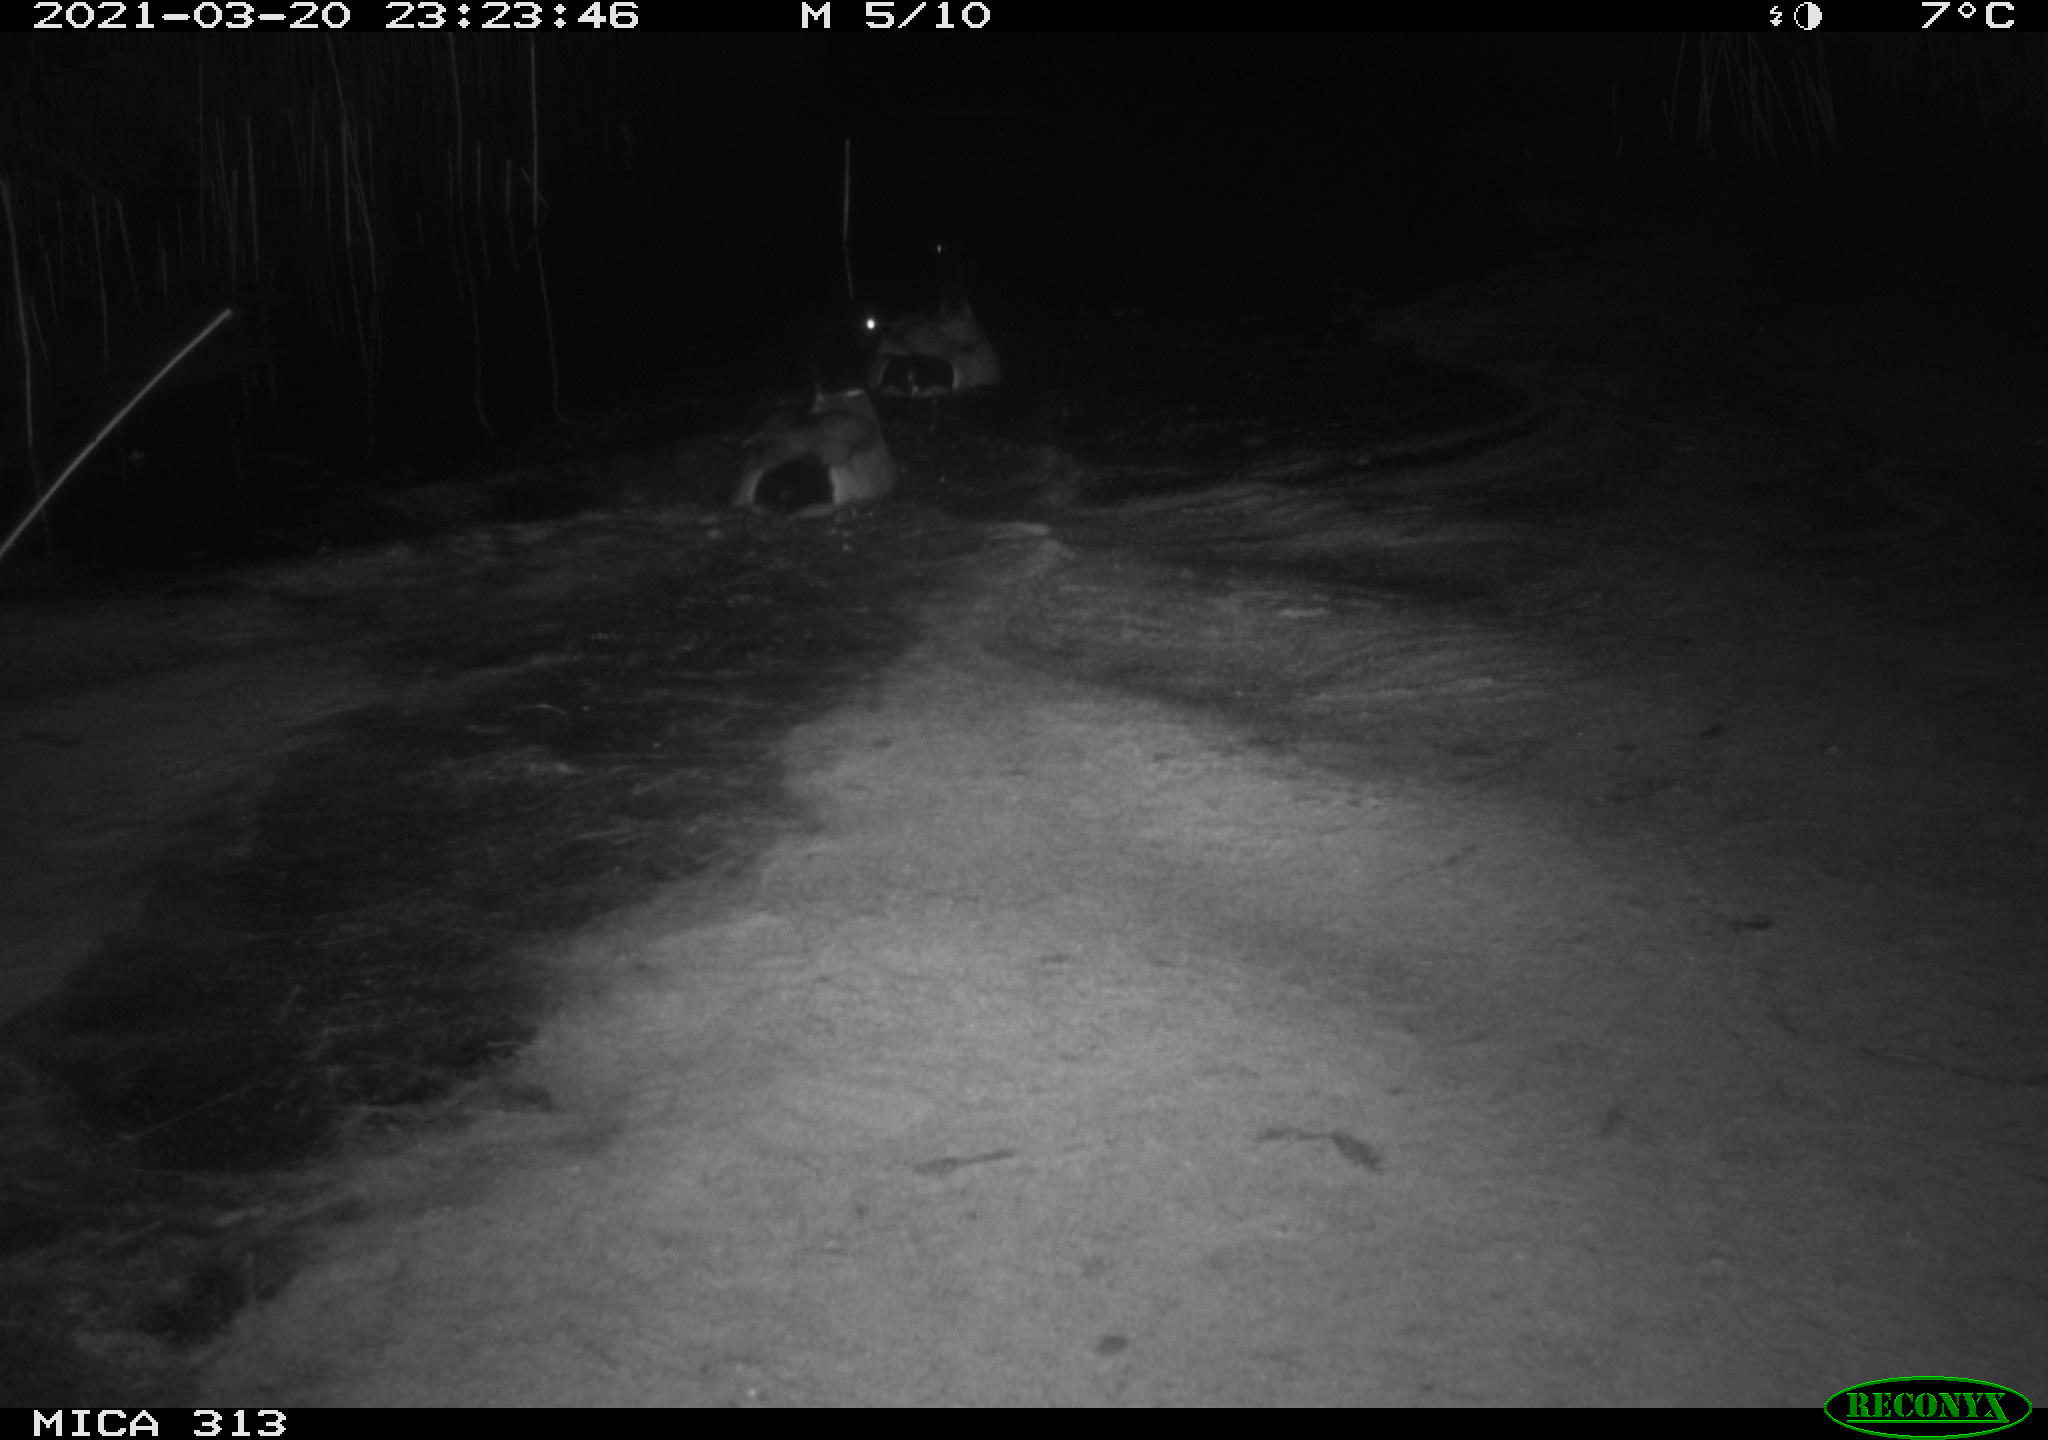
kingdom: Animalia
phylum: Chordata
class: Aves
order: Anseriformes
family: Anatidae
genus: Anas
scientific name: Anas platyrhynchos
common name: Mallard
